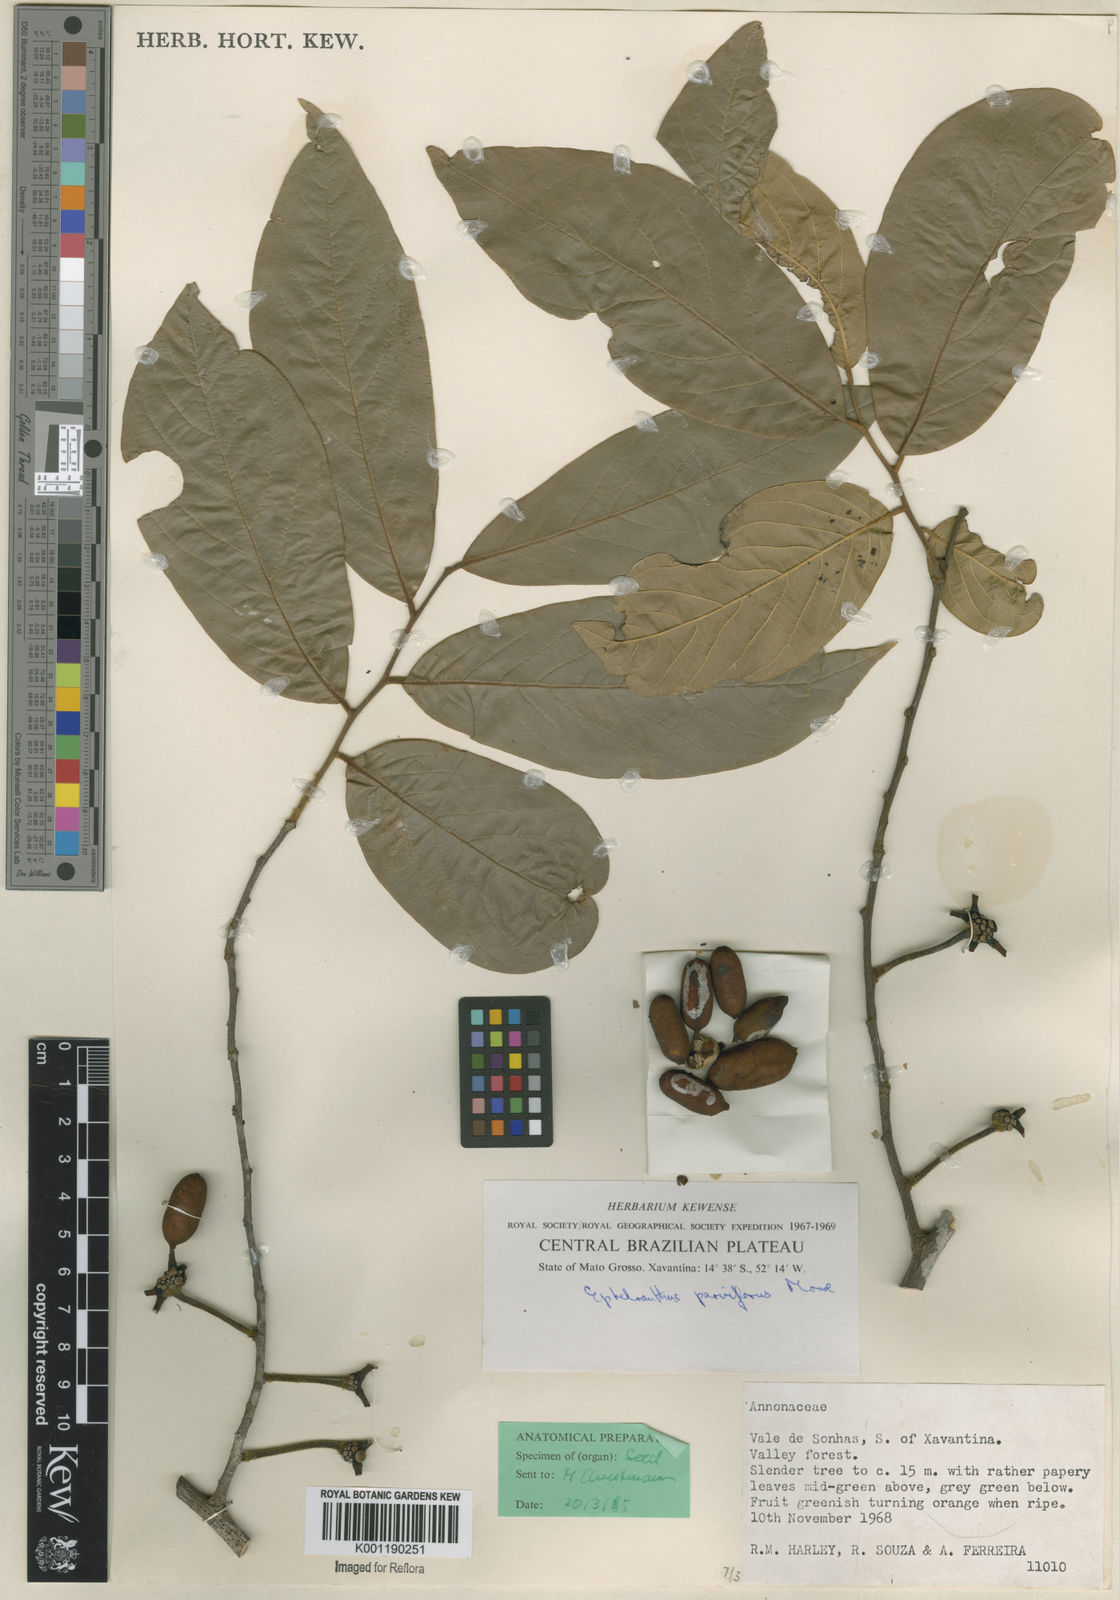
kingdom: Plantae
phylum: Tracheophyta
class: Magnoliopsida
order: Magnoliales
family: Annonaceae
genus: Ephedranthus
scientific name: Ephedranthus parviflorus
